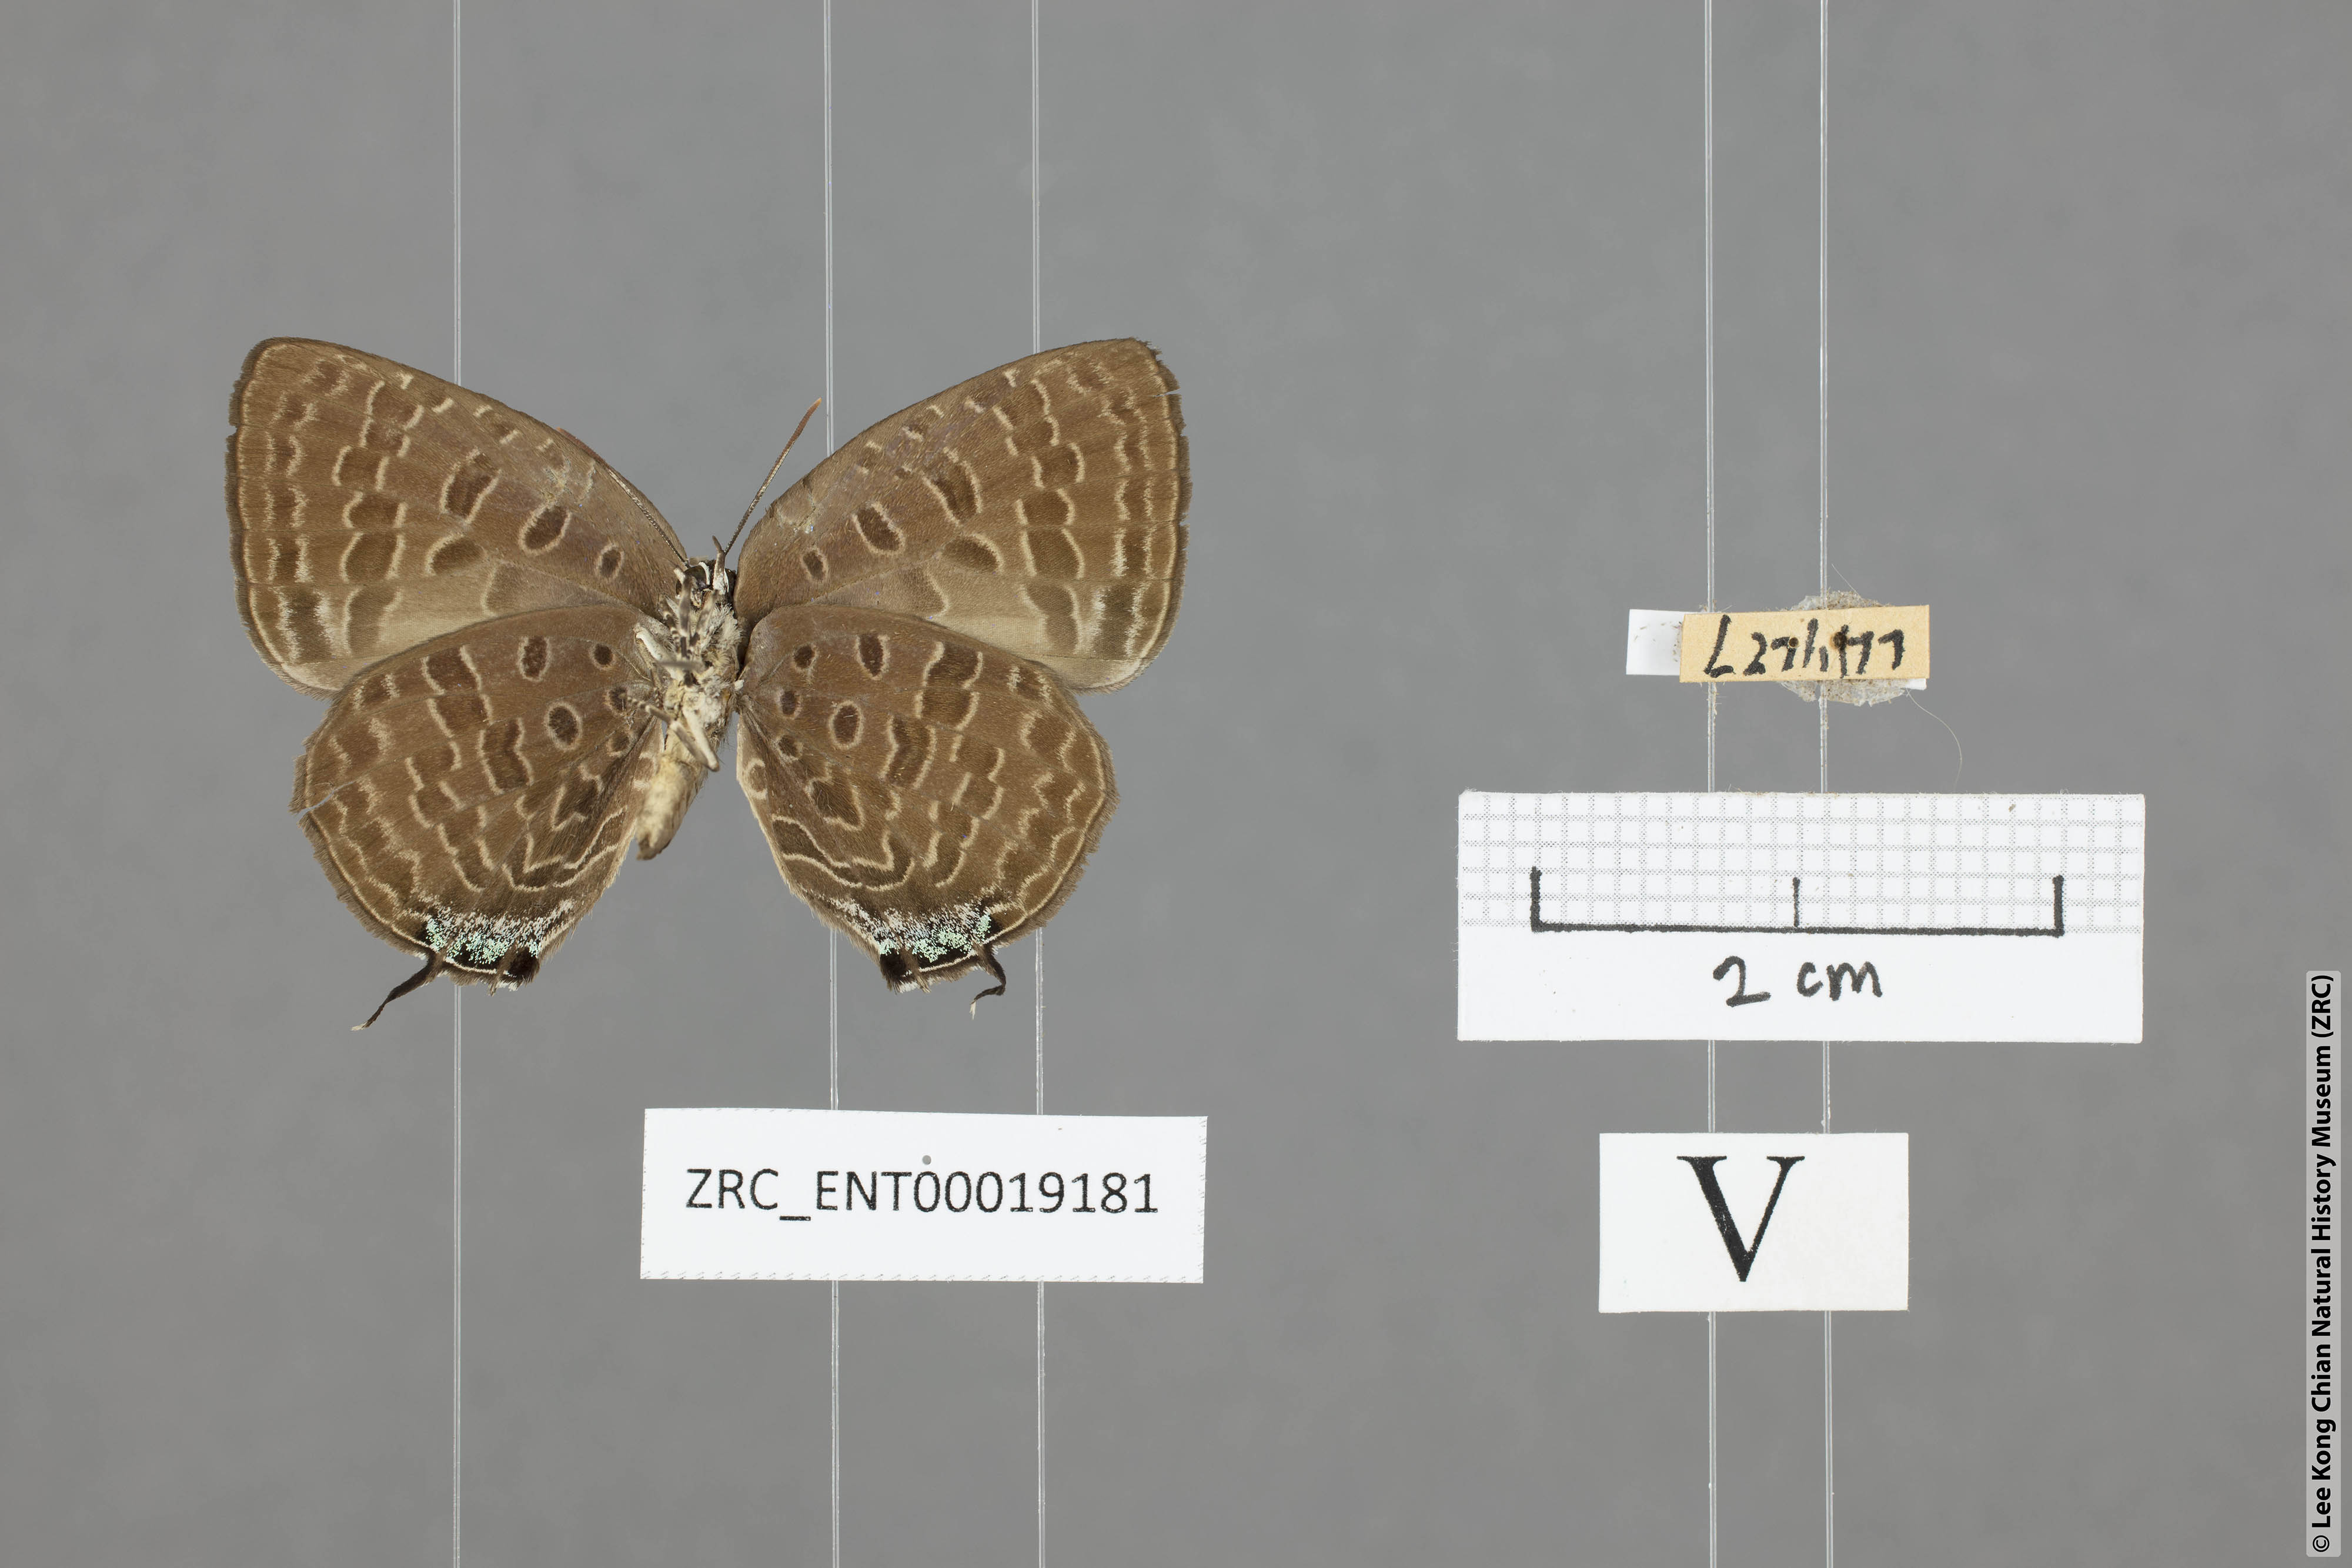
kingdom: Animalia
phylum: Arthropoda
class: Insecta
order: Lepidoptera
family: Lycaenidae
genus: Arhopala
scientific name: Arhopala ariana
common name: Pinkish-washed oakblue
